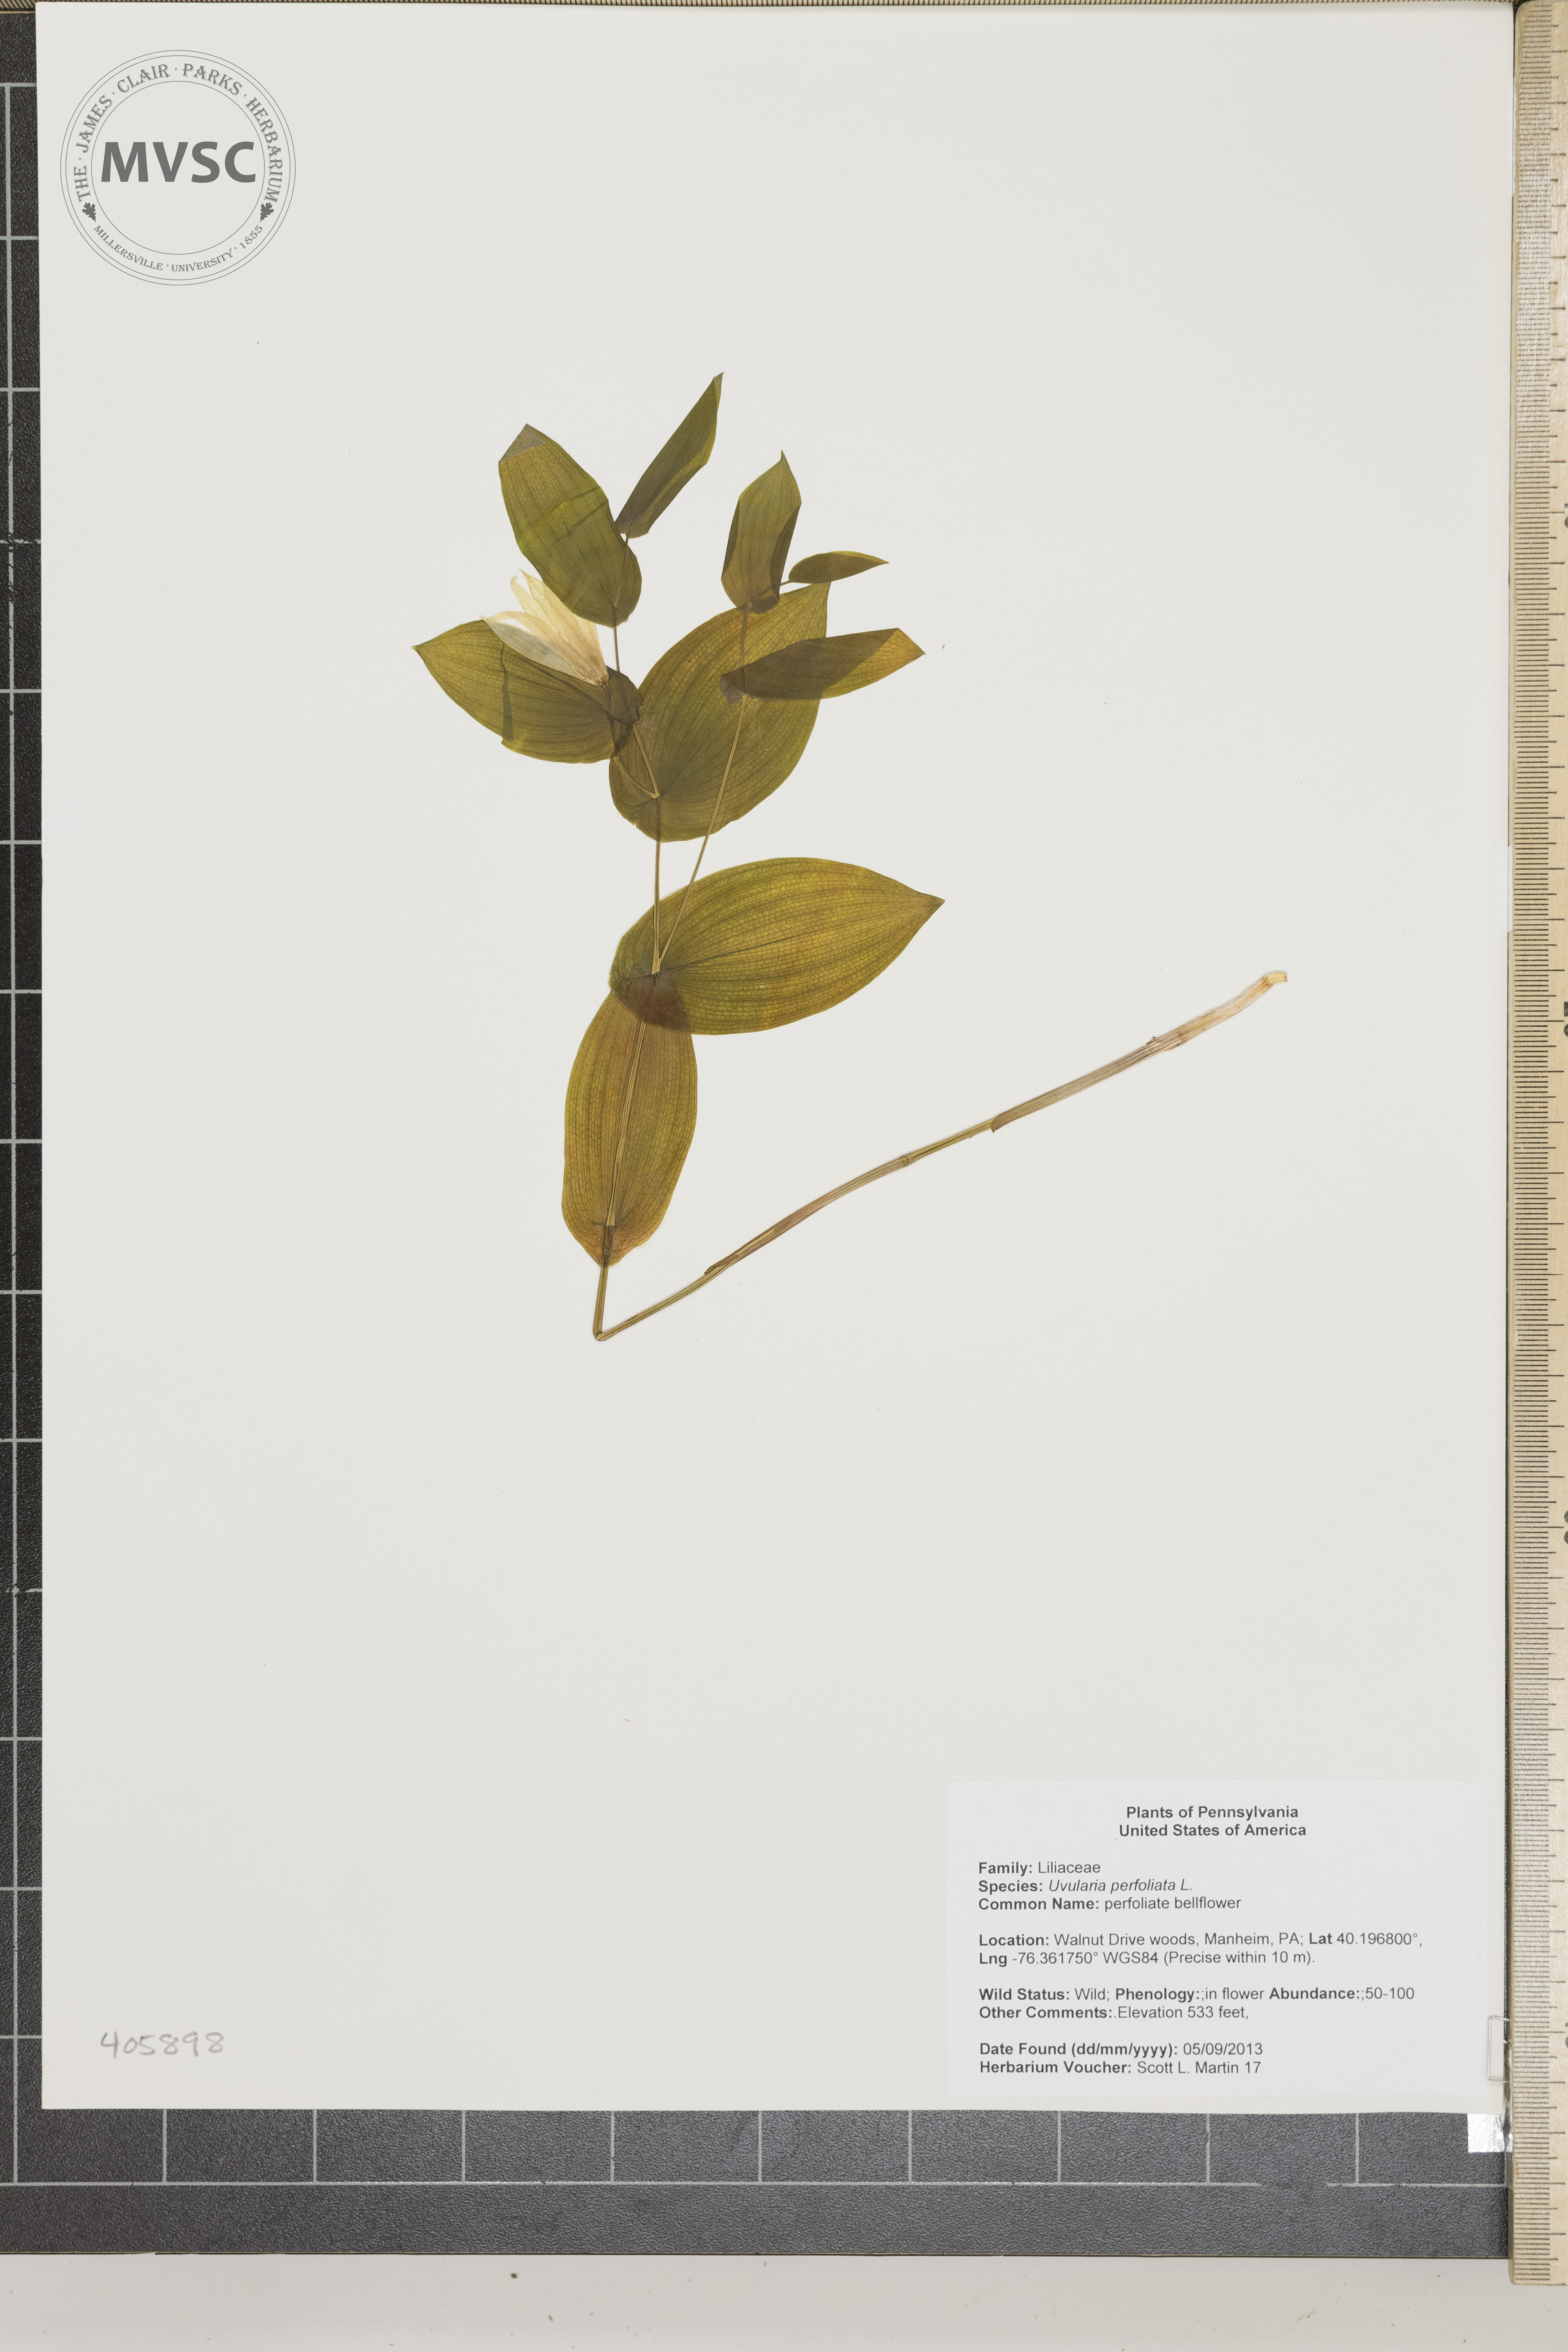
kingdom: Plantae
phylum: Tracheophyta
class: Liliopsida
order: Liliales
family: Colchicaceae
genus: Uvularia
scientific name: Uvularia perfoliata
